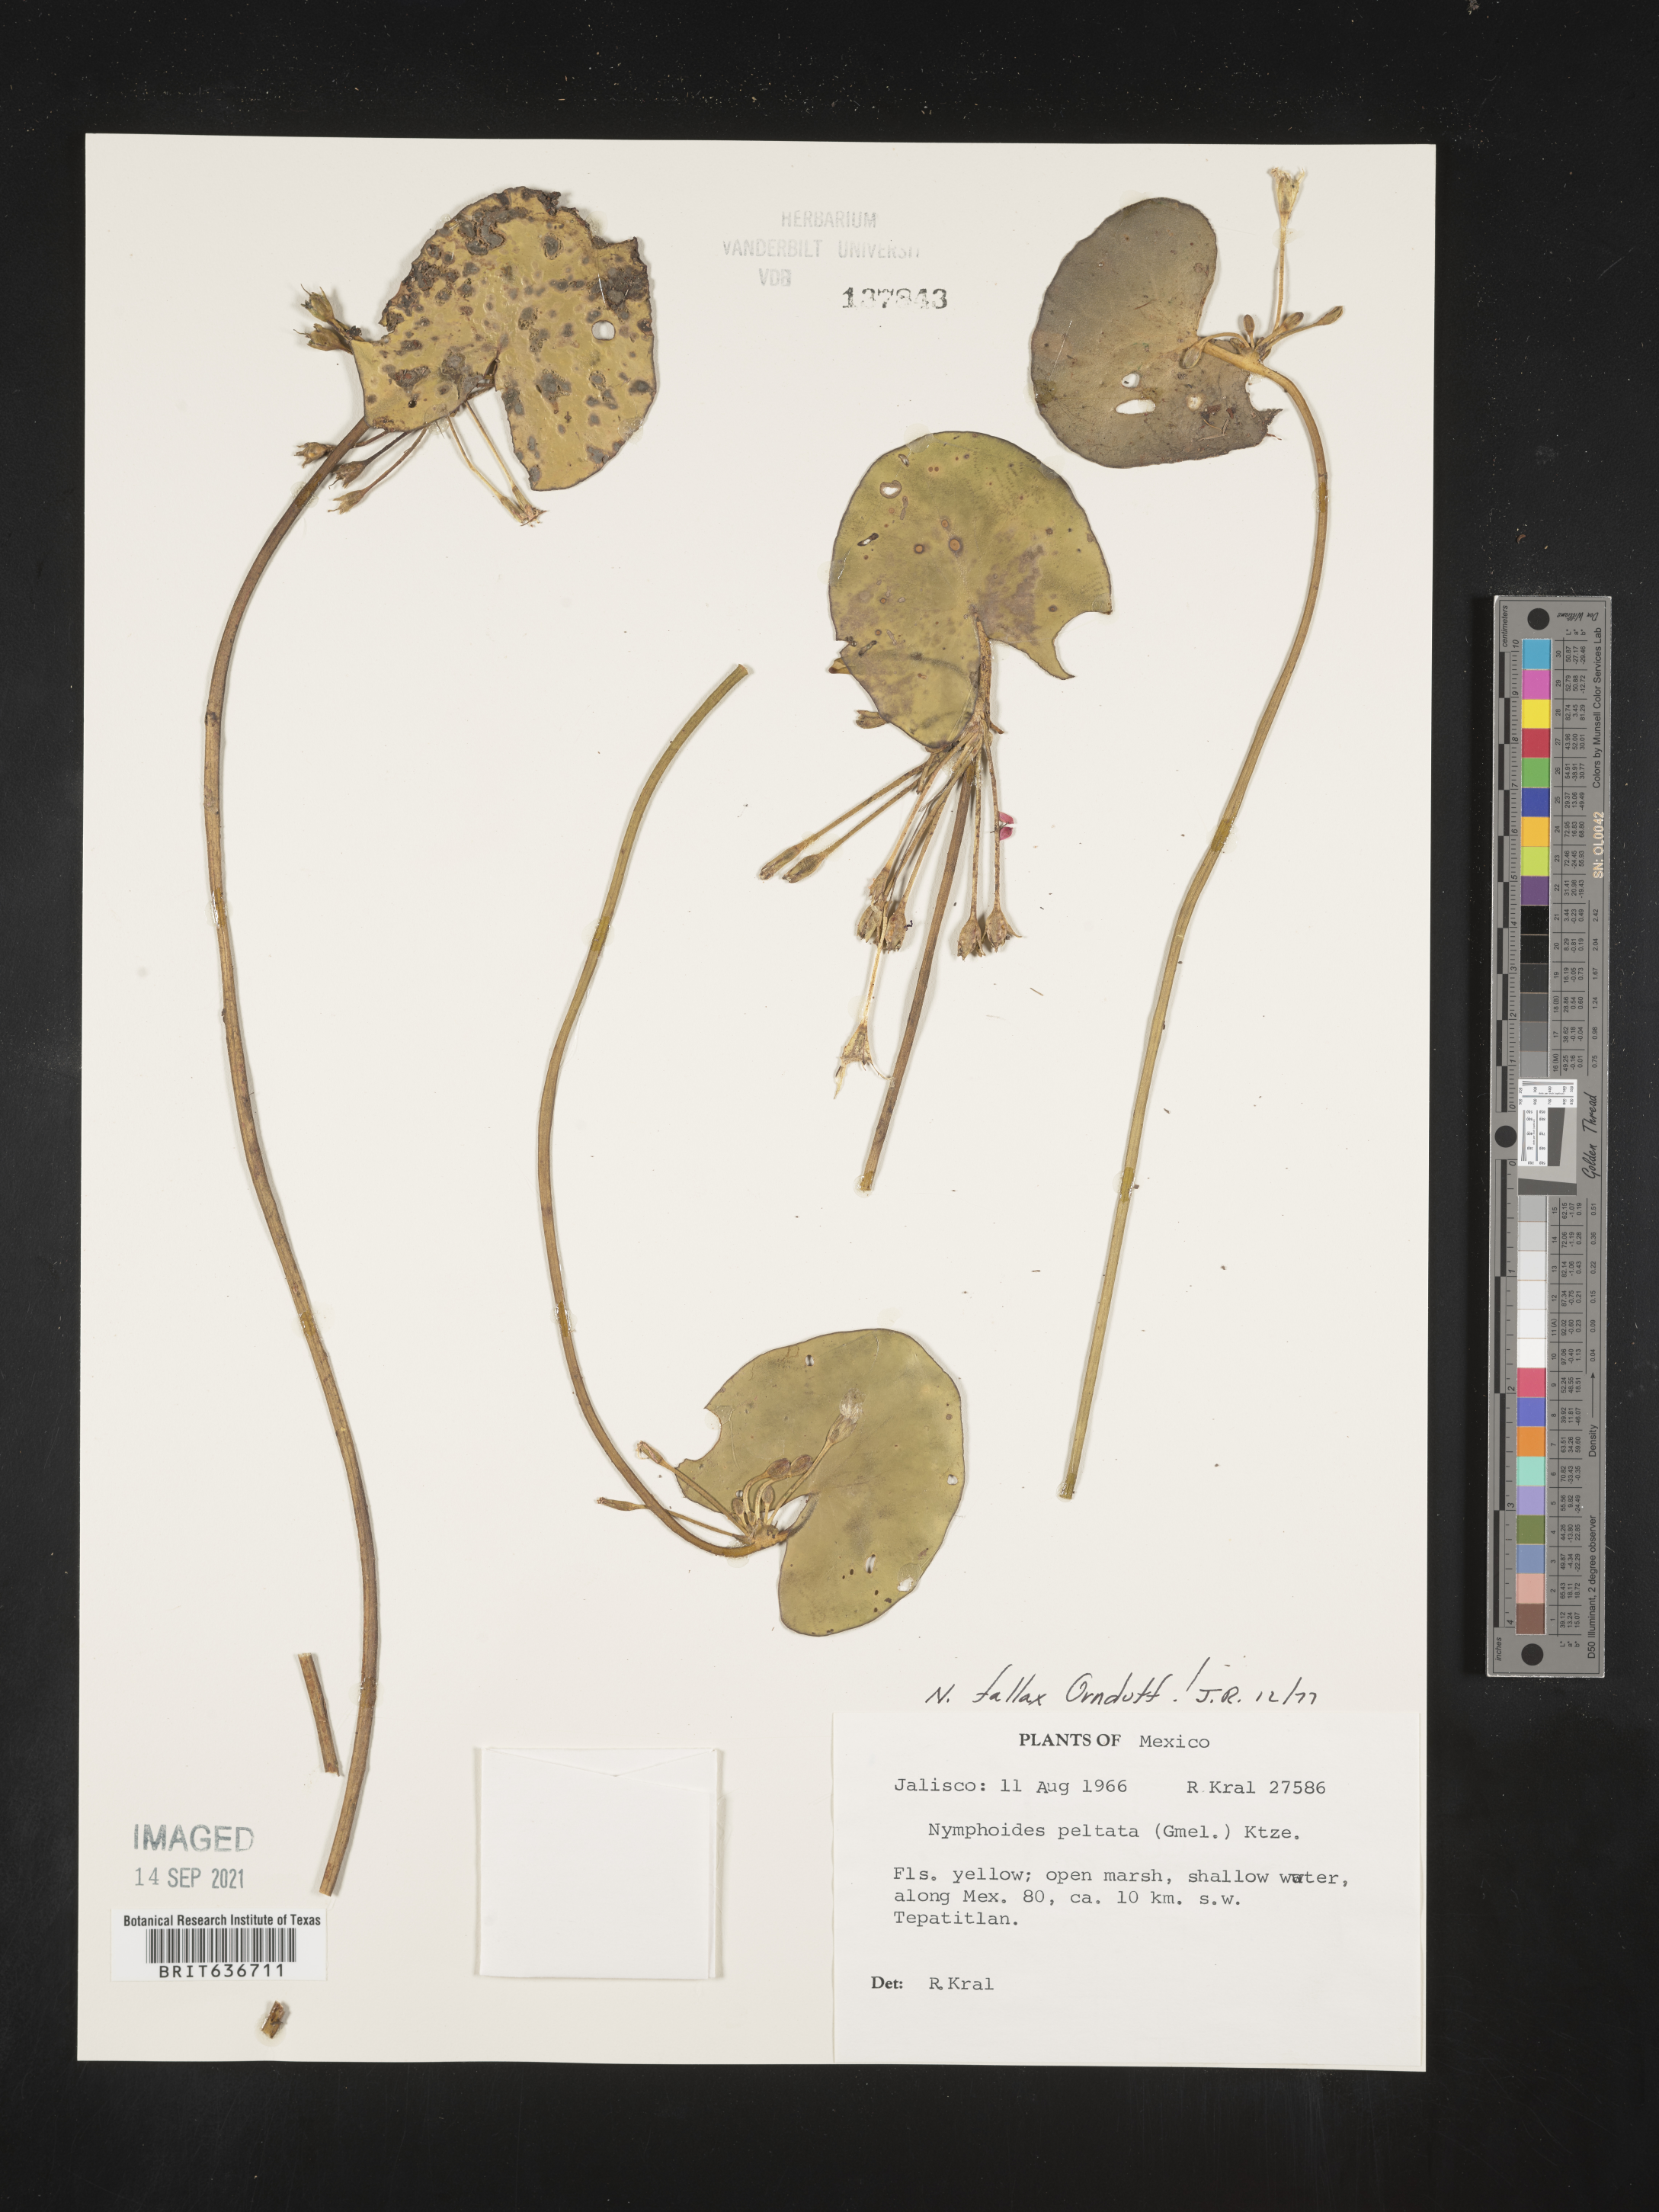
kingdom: Plantae
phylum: Tracheophyta
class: Magnoliopsida
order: Asterales
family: Menyanthaceae
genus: Nymphoides
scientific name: Nymphoides
